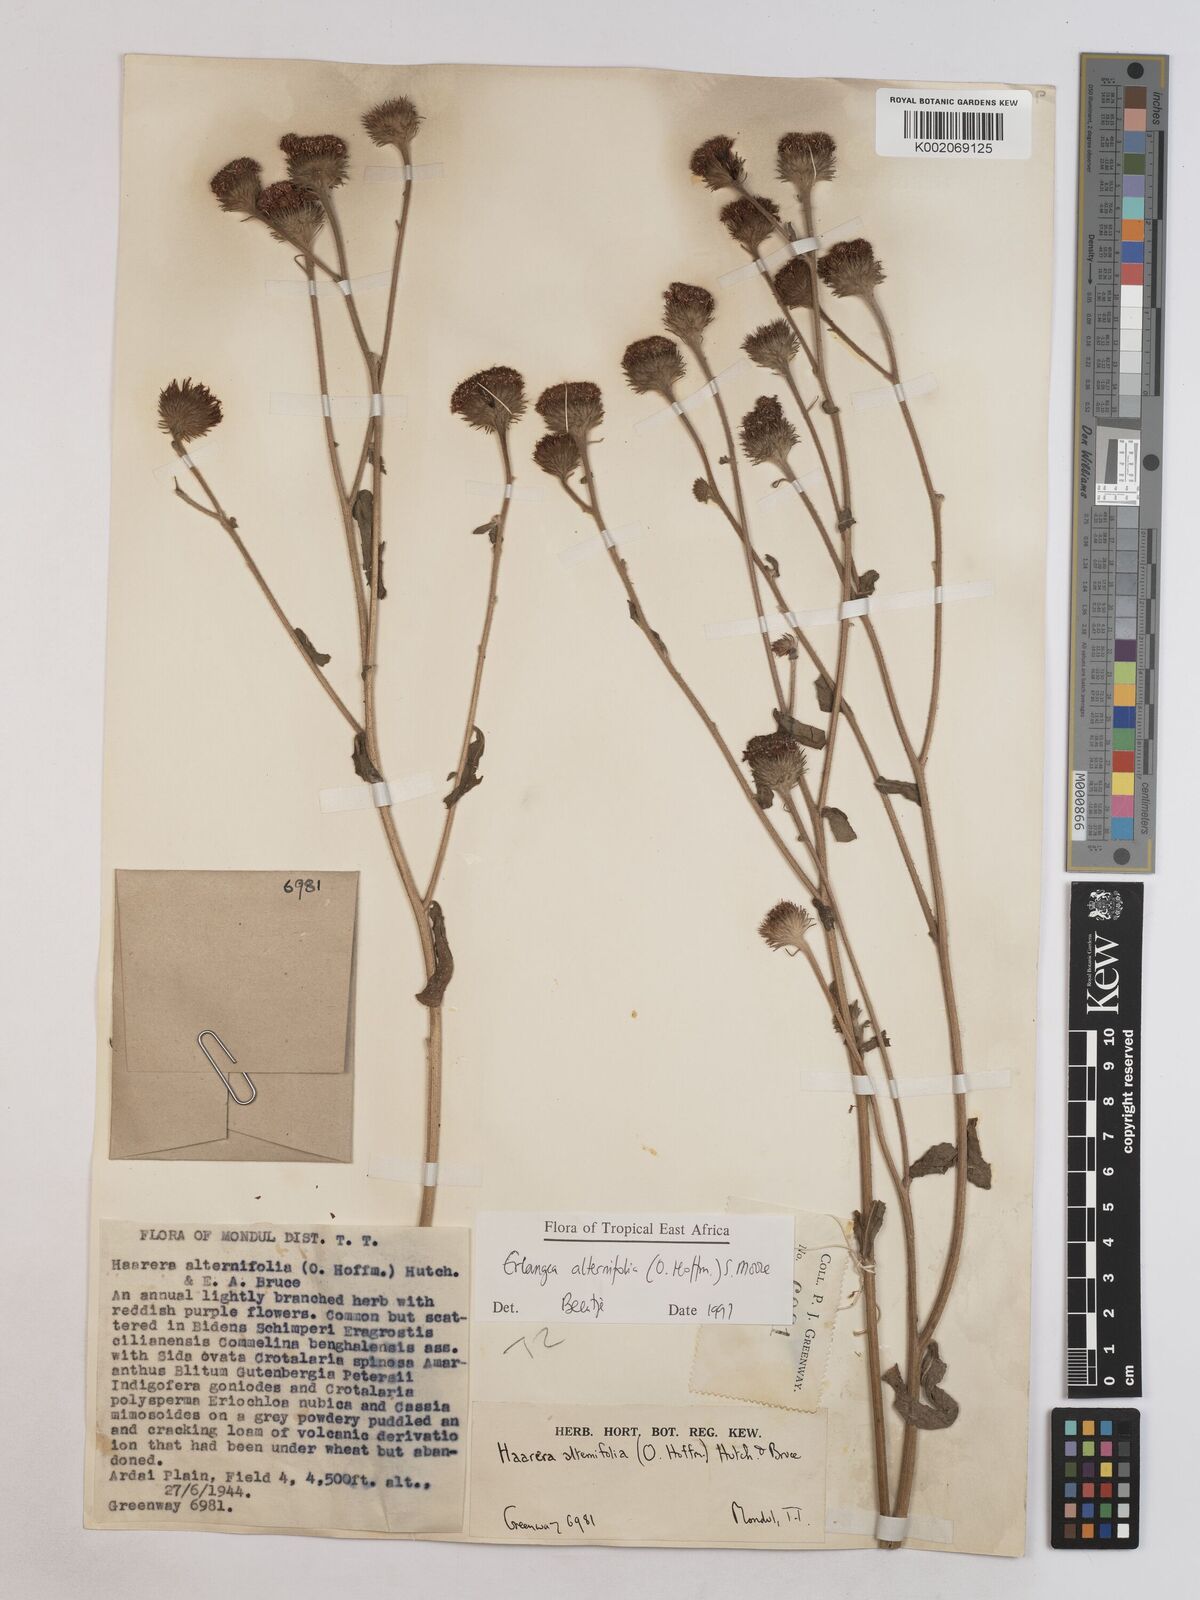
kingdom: Plantae
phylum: Tracheophyta
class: Magnoliopsida
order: Asterales
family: Asteraceae
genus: Erlangea
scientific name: Erlangea alternifolia
